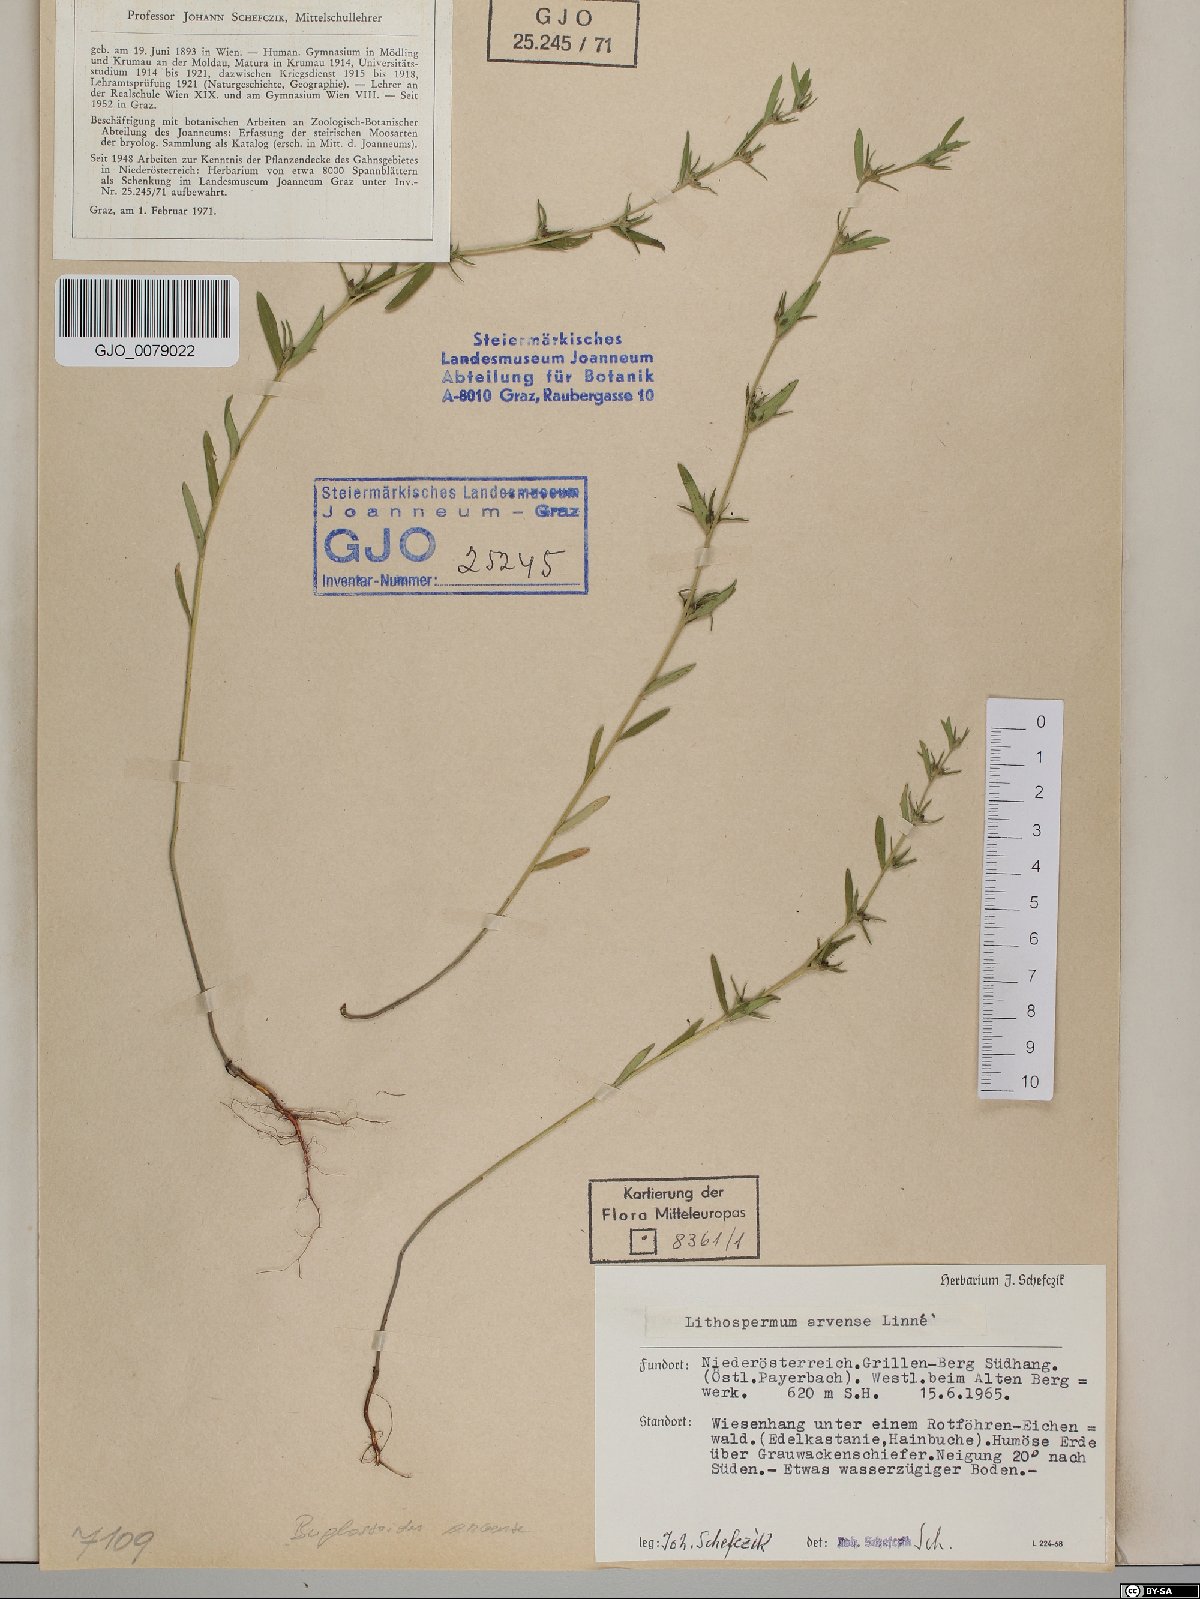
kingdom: Plantae
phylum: Tracheophyta
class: Magnoliopsida
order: Boraginales
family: Boraginaceae
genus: Buglossoides
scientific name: Buglossoides arvensis
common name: Corn gromwell
